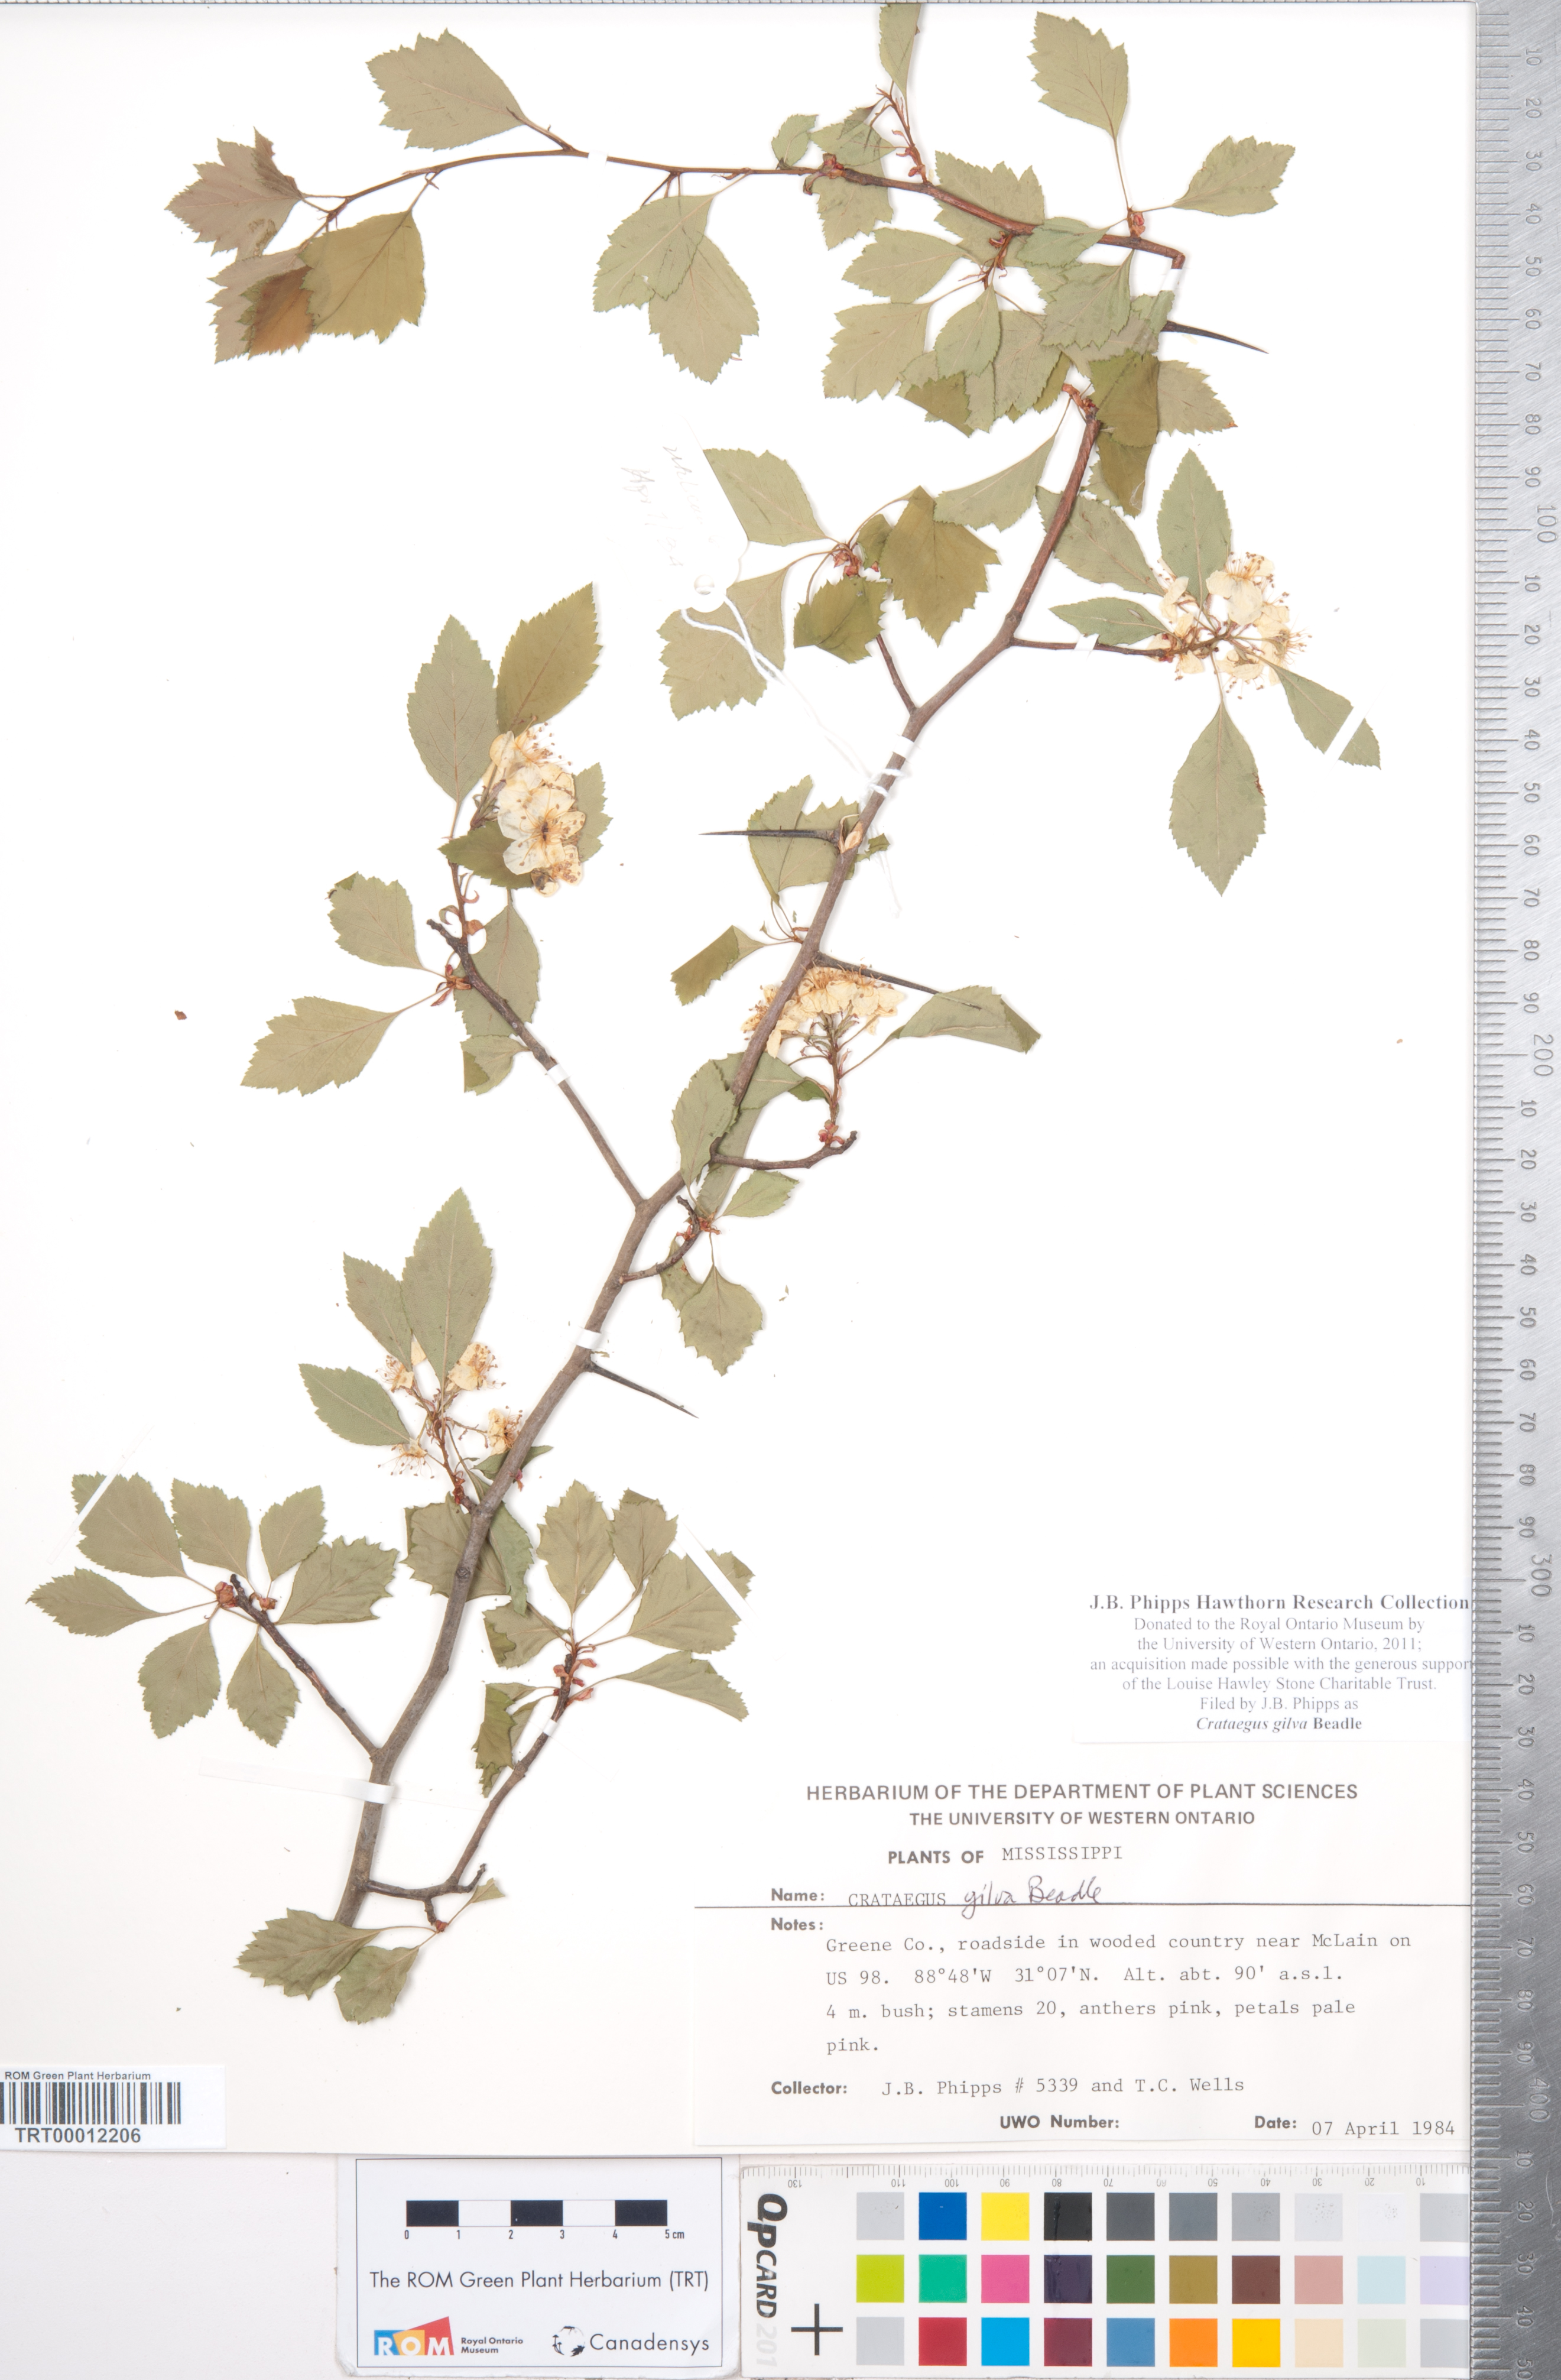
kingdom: Plantae
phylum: Tracheophyta
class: Magnoliopsida
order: Rosales
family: Rosaceae
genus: Crataegus
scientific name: Crataegus sargentii
